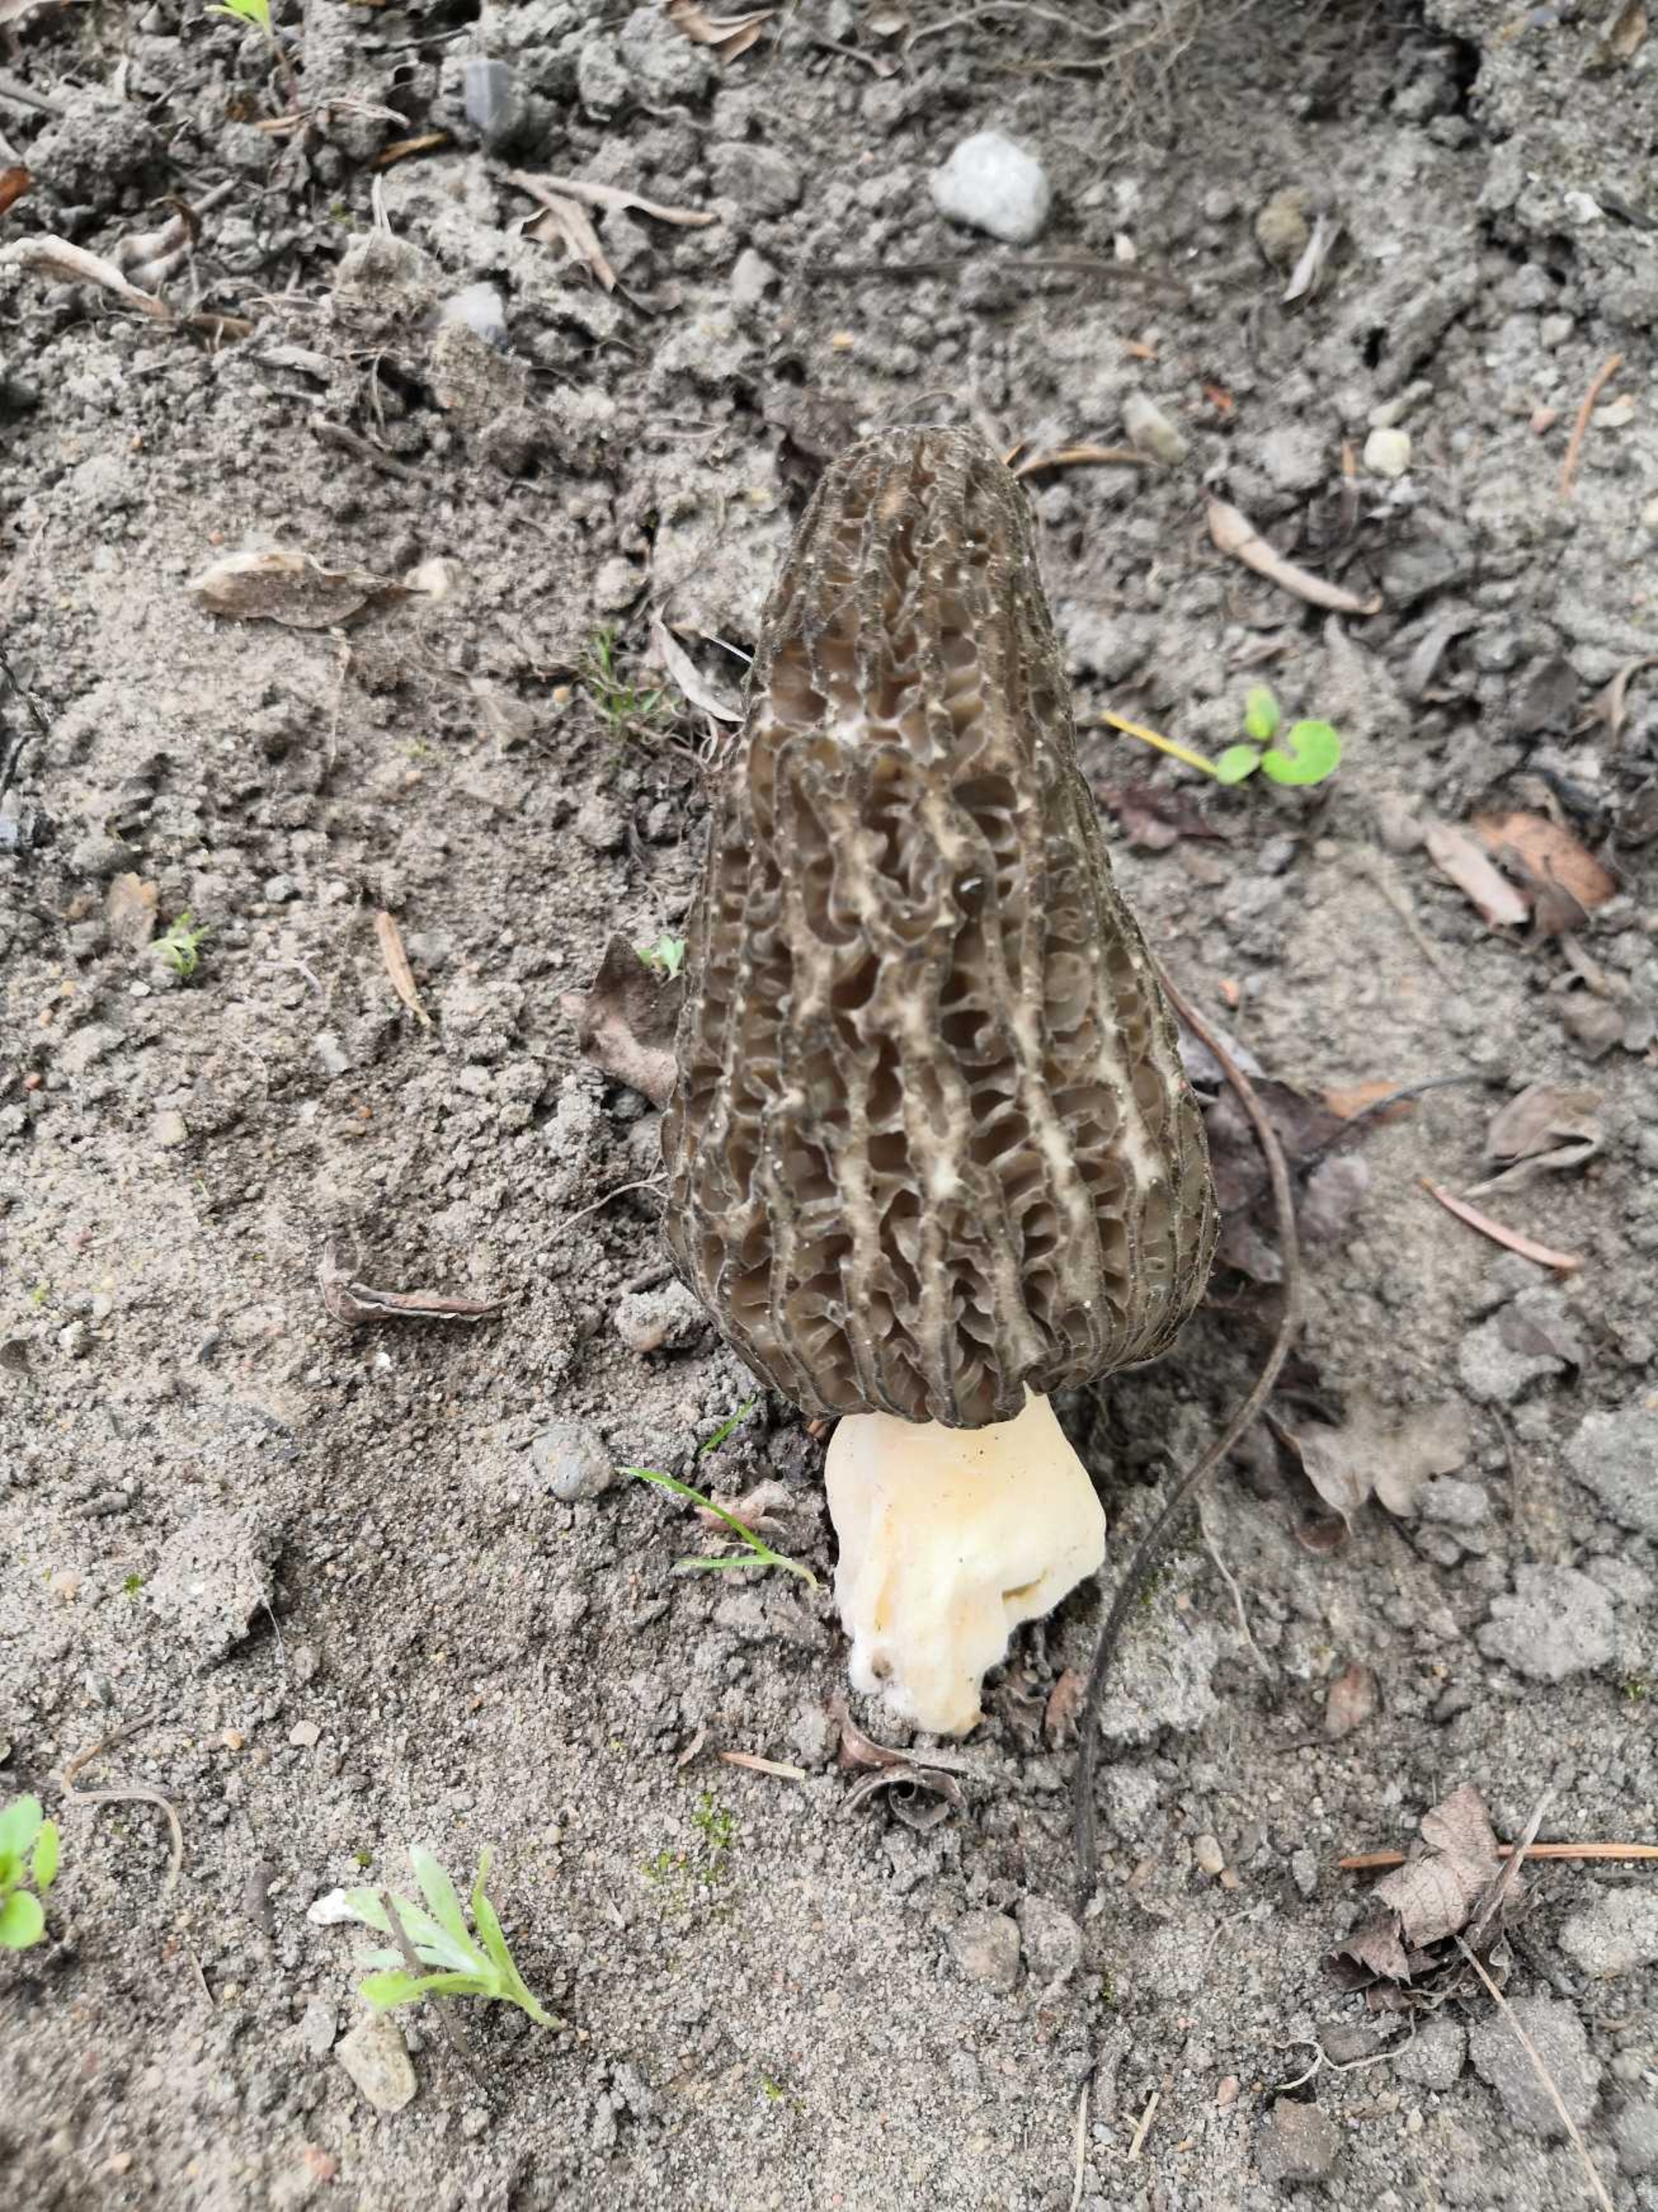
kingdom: Fungi
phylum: Ascomycota
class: Pezizomycetes
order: Pezizales
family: Morchellaceae
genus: Morchella
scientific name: Morchella
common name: Morkel
